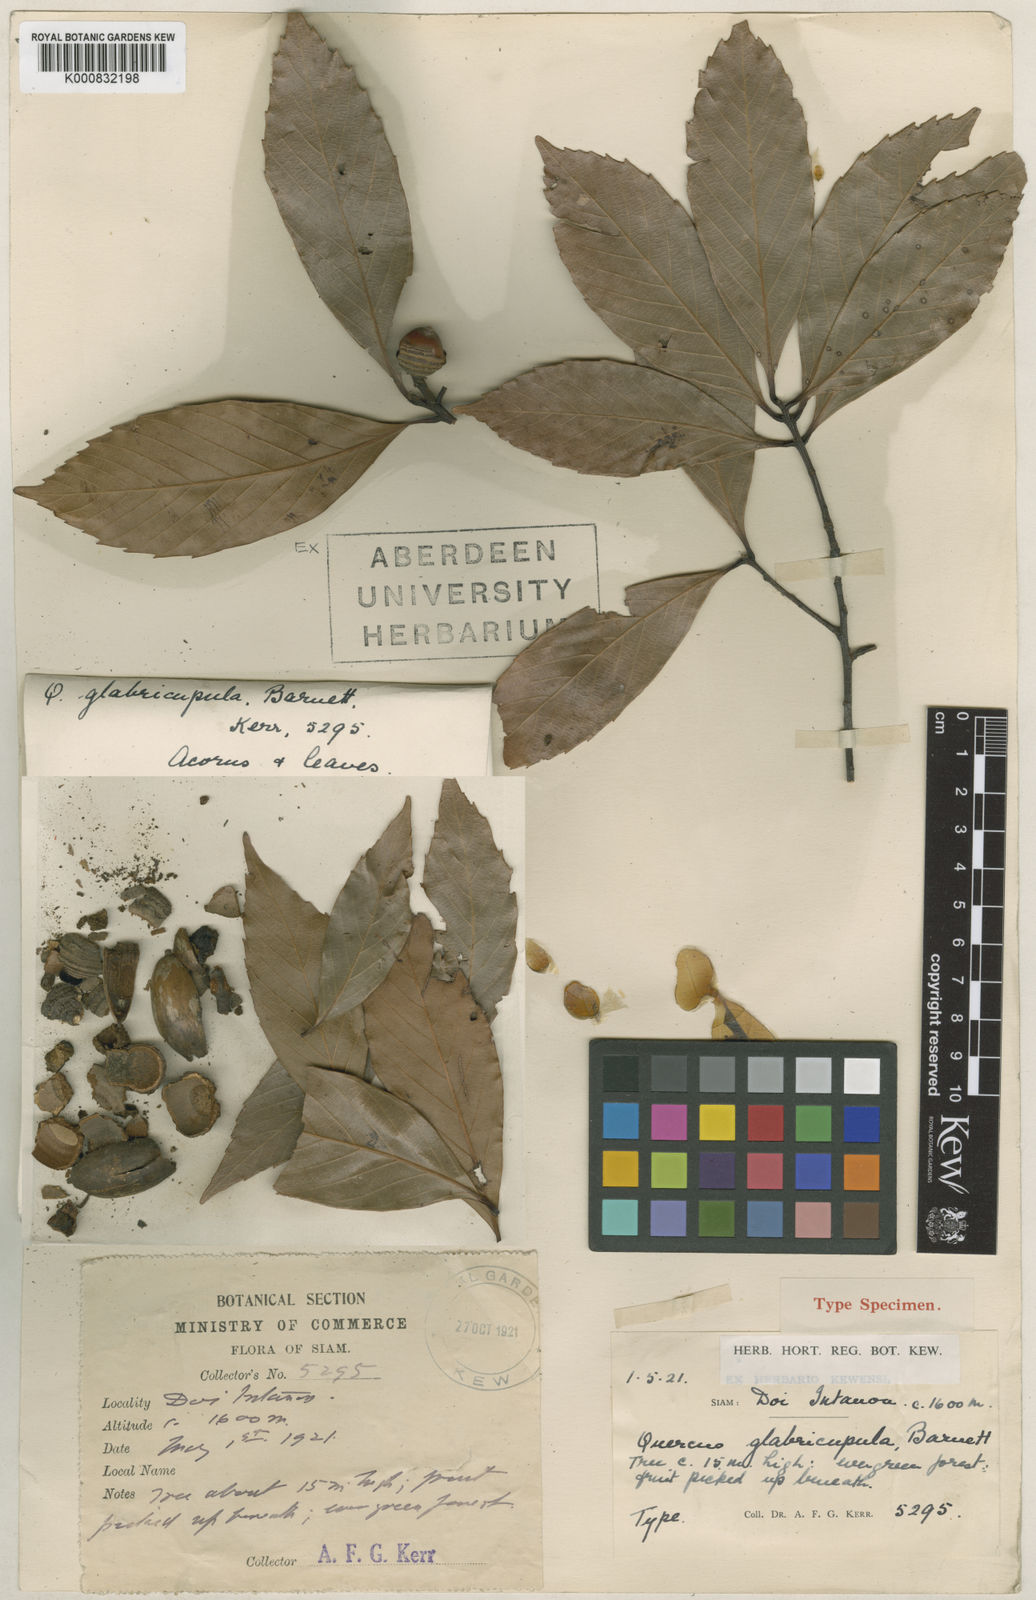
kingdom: Plantae
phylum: Tracheophyta
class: Magnoliopsida
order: Fagales
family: Fagaceae
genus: Quercus
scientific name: Quercus augustini
